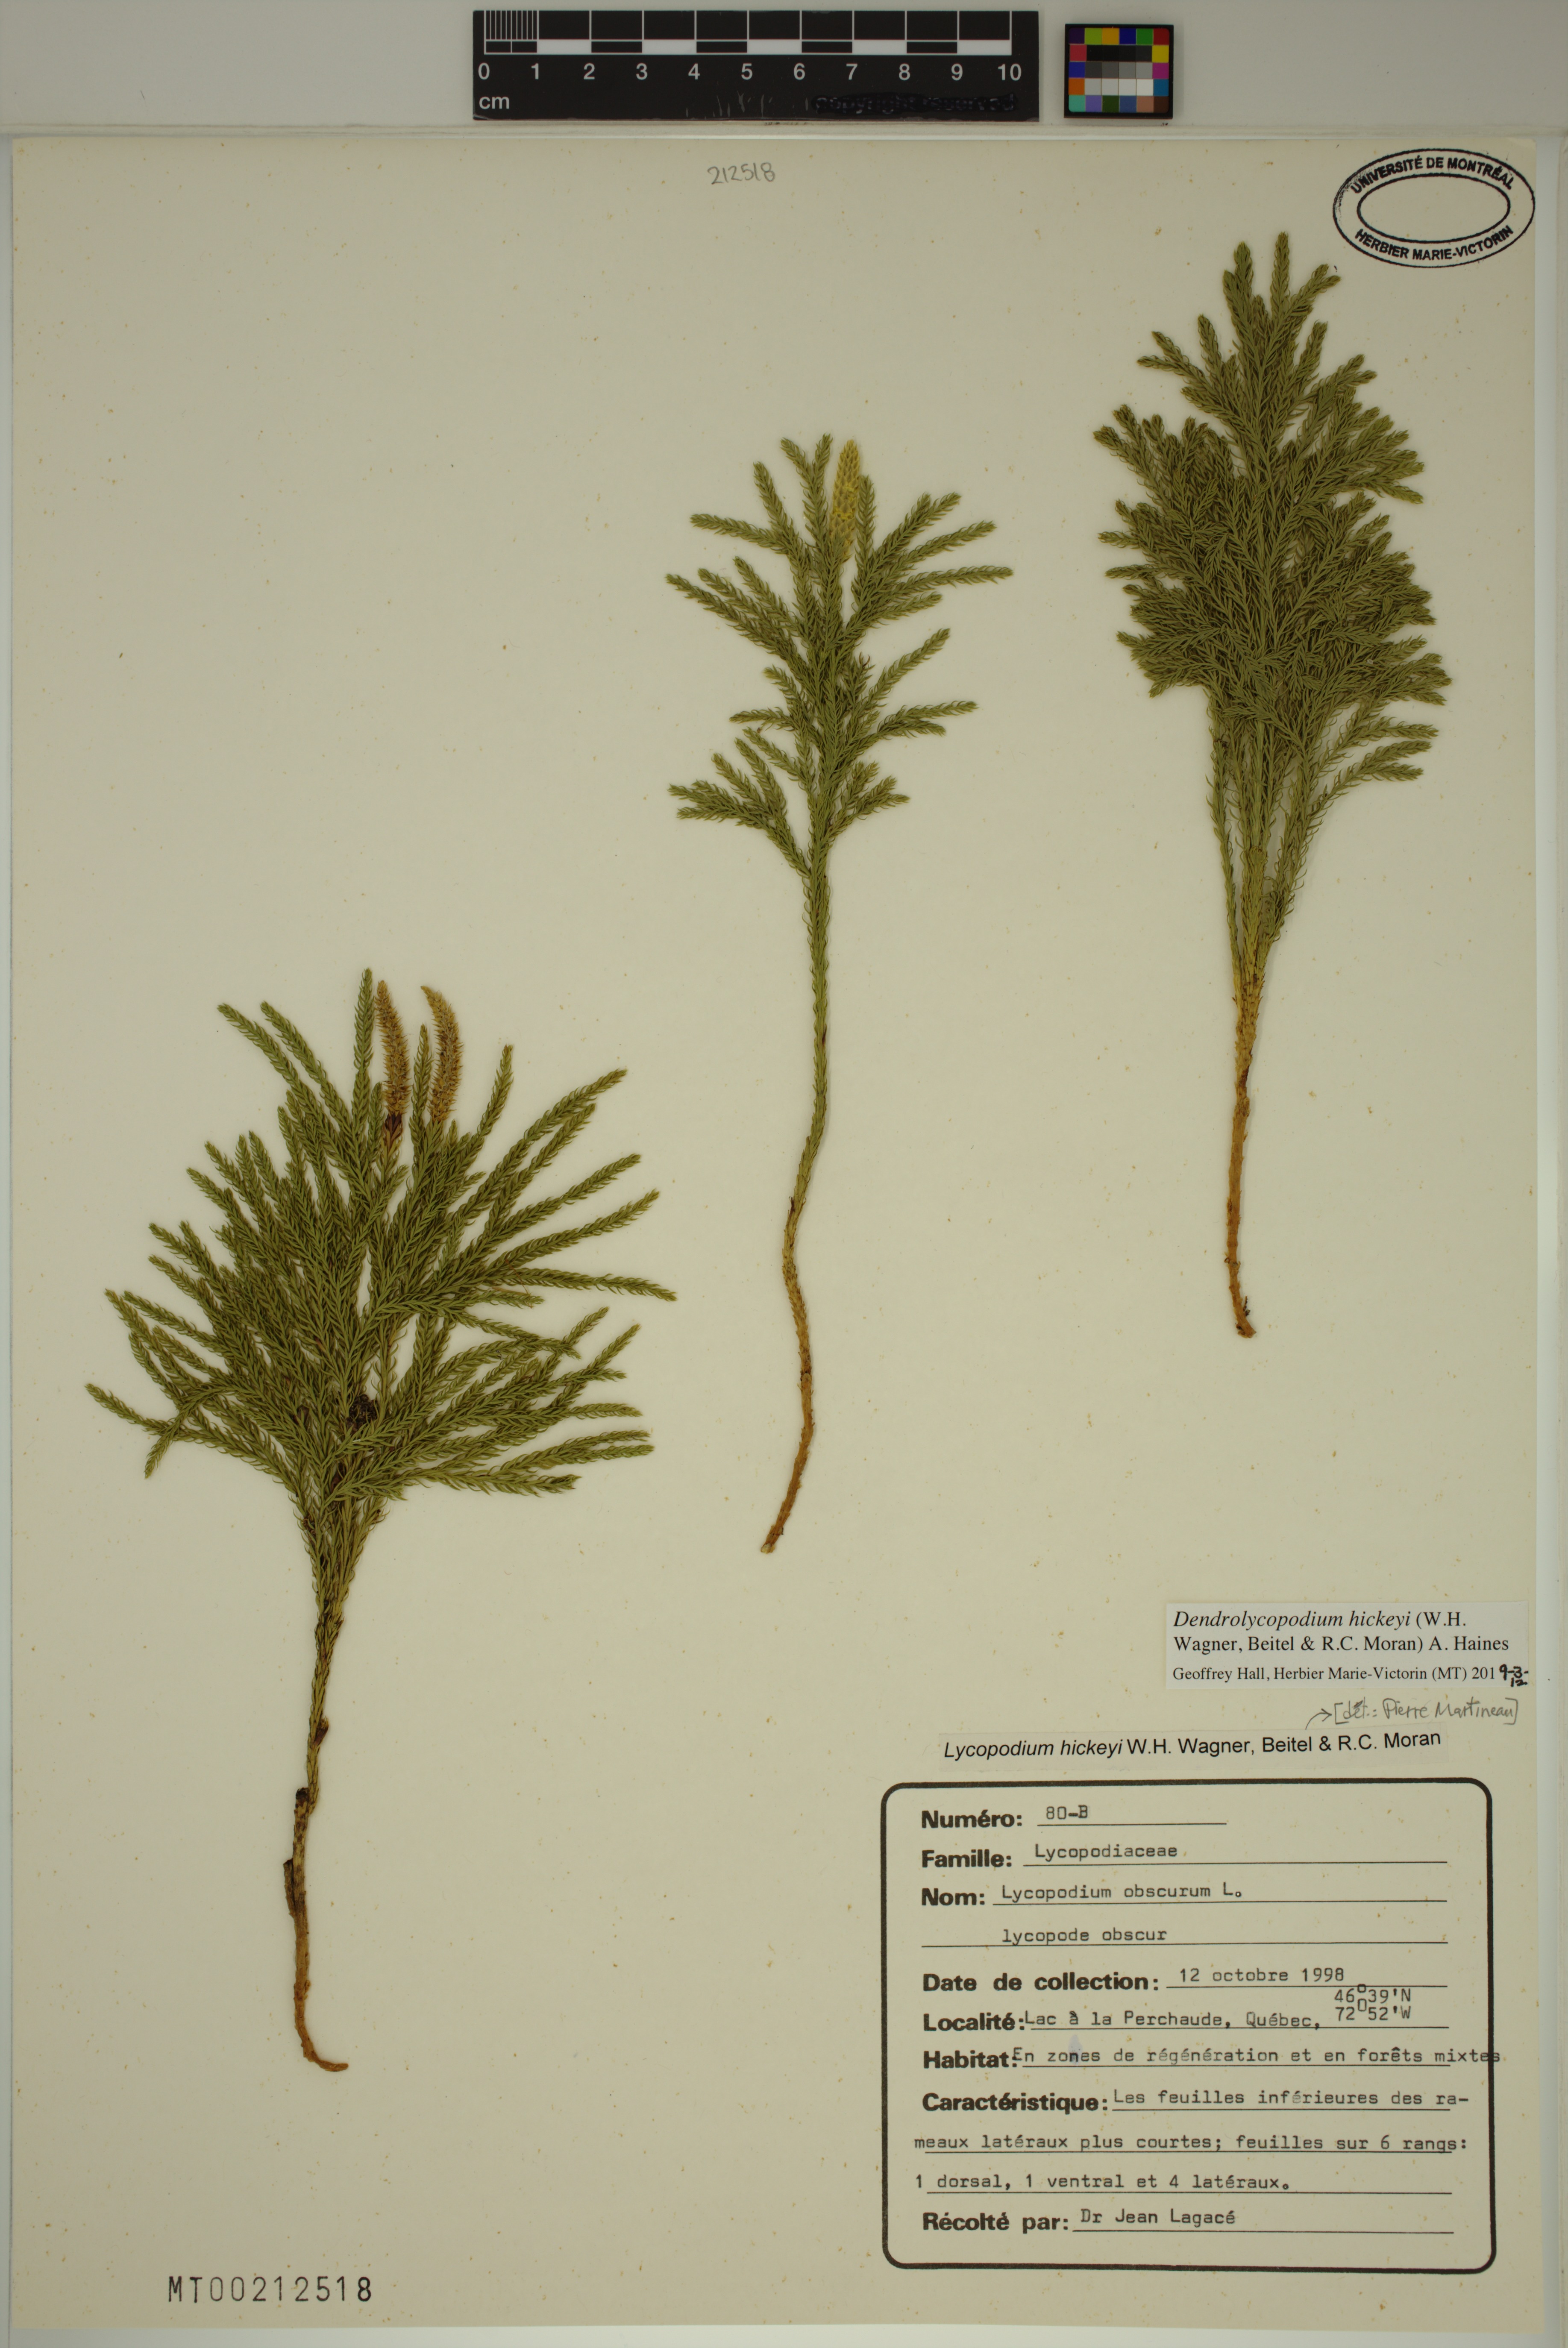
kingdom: Plantae
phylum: Tracheophyta
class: Lycopodiopsida
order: Lycopodiales
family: Lycopodiaceae
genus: Dendrolycopodium
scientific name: Dendrolycopodium hickeyi
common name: Hickey's clubmoss
